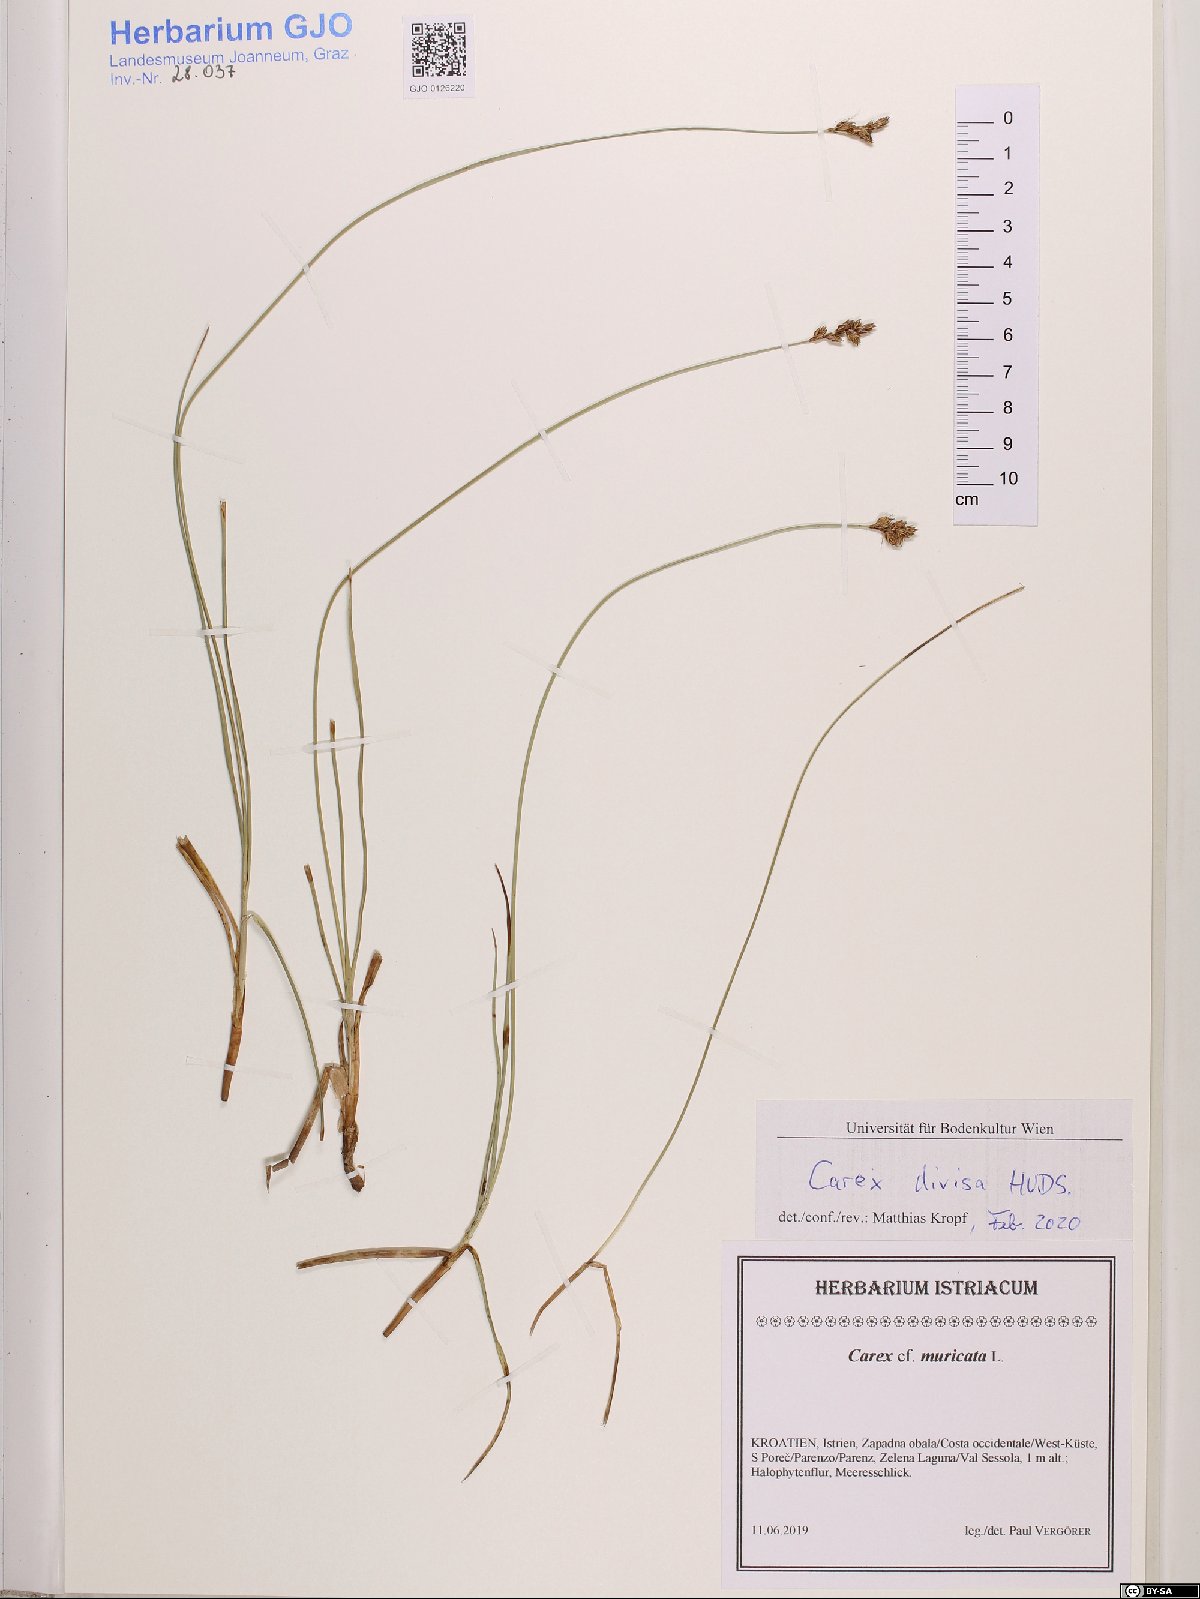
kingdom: Plantae
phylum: Tracheophyta
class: Liliopsida
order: Poales
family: Cyperaceae
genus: Carex
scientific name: Carex divisa
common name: Divided sedge
